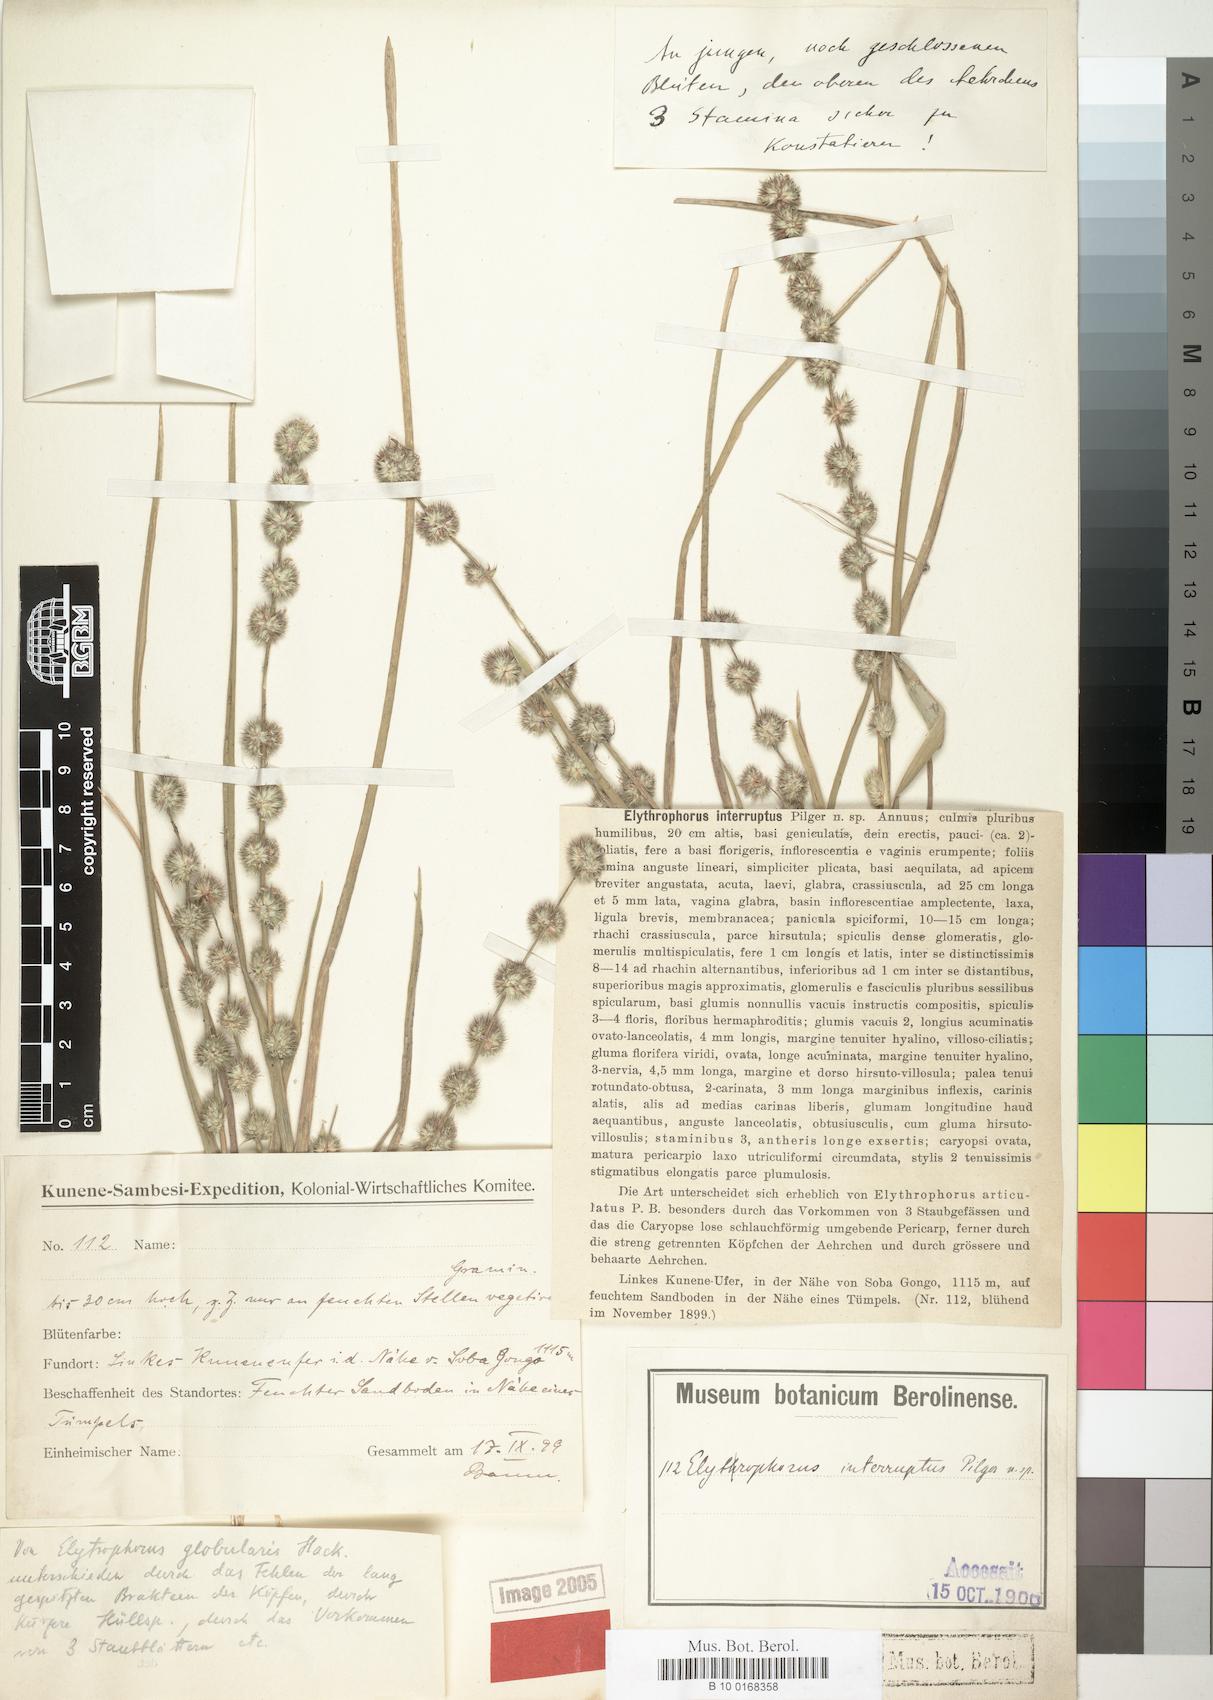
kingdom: Plantae
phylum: Tracheophyta
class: Liliopsida
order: Poales
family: Poaceae
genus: Elytrophorus
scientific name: Elytrophorus globularis
